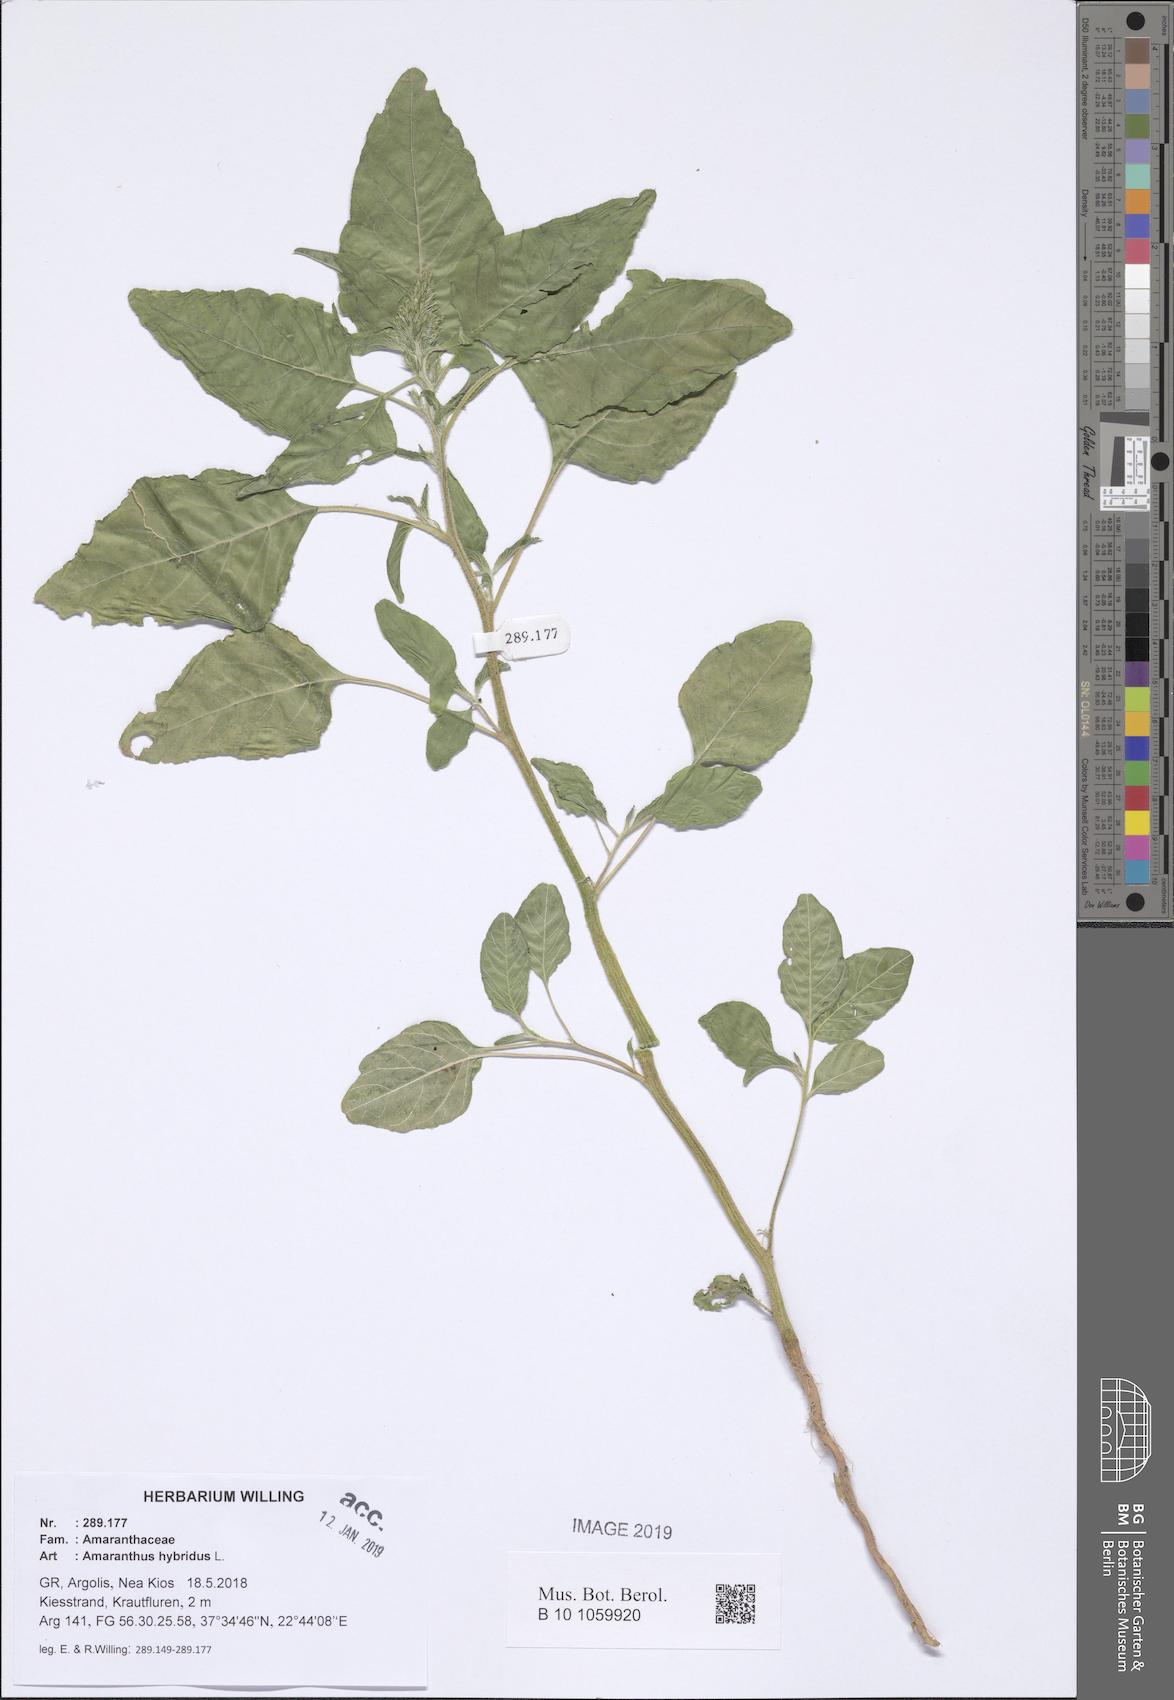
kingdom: Plantae
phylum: Tracheophyta
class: Magnoliopsida
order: Caryophyllales
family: Amaranthaceae
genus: Amaranthus
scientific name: Amaranthus hybridus
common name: Green amaranth
